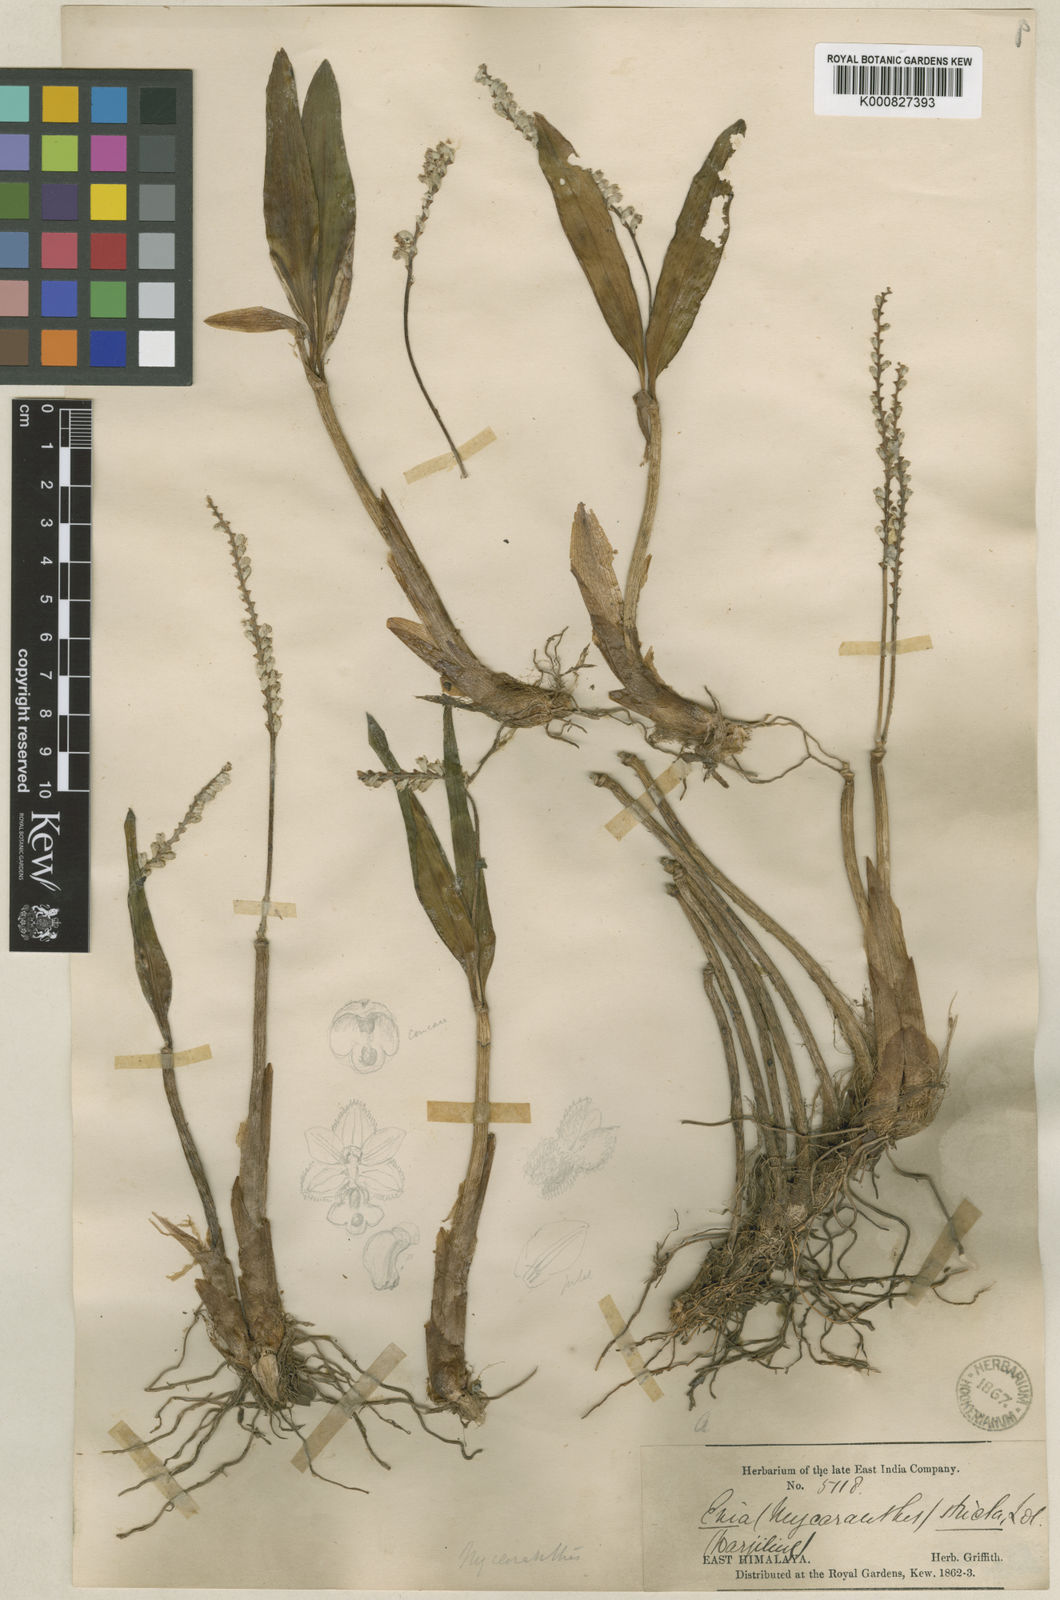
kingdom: Plantae
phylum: Tracheophyta
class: Liliopsida
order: Asparagales
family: Orchidaceae
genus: Cryptochilus
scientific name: Cryptochilus strictus
